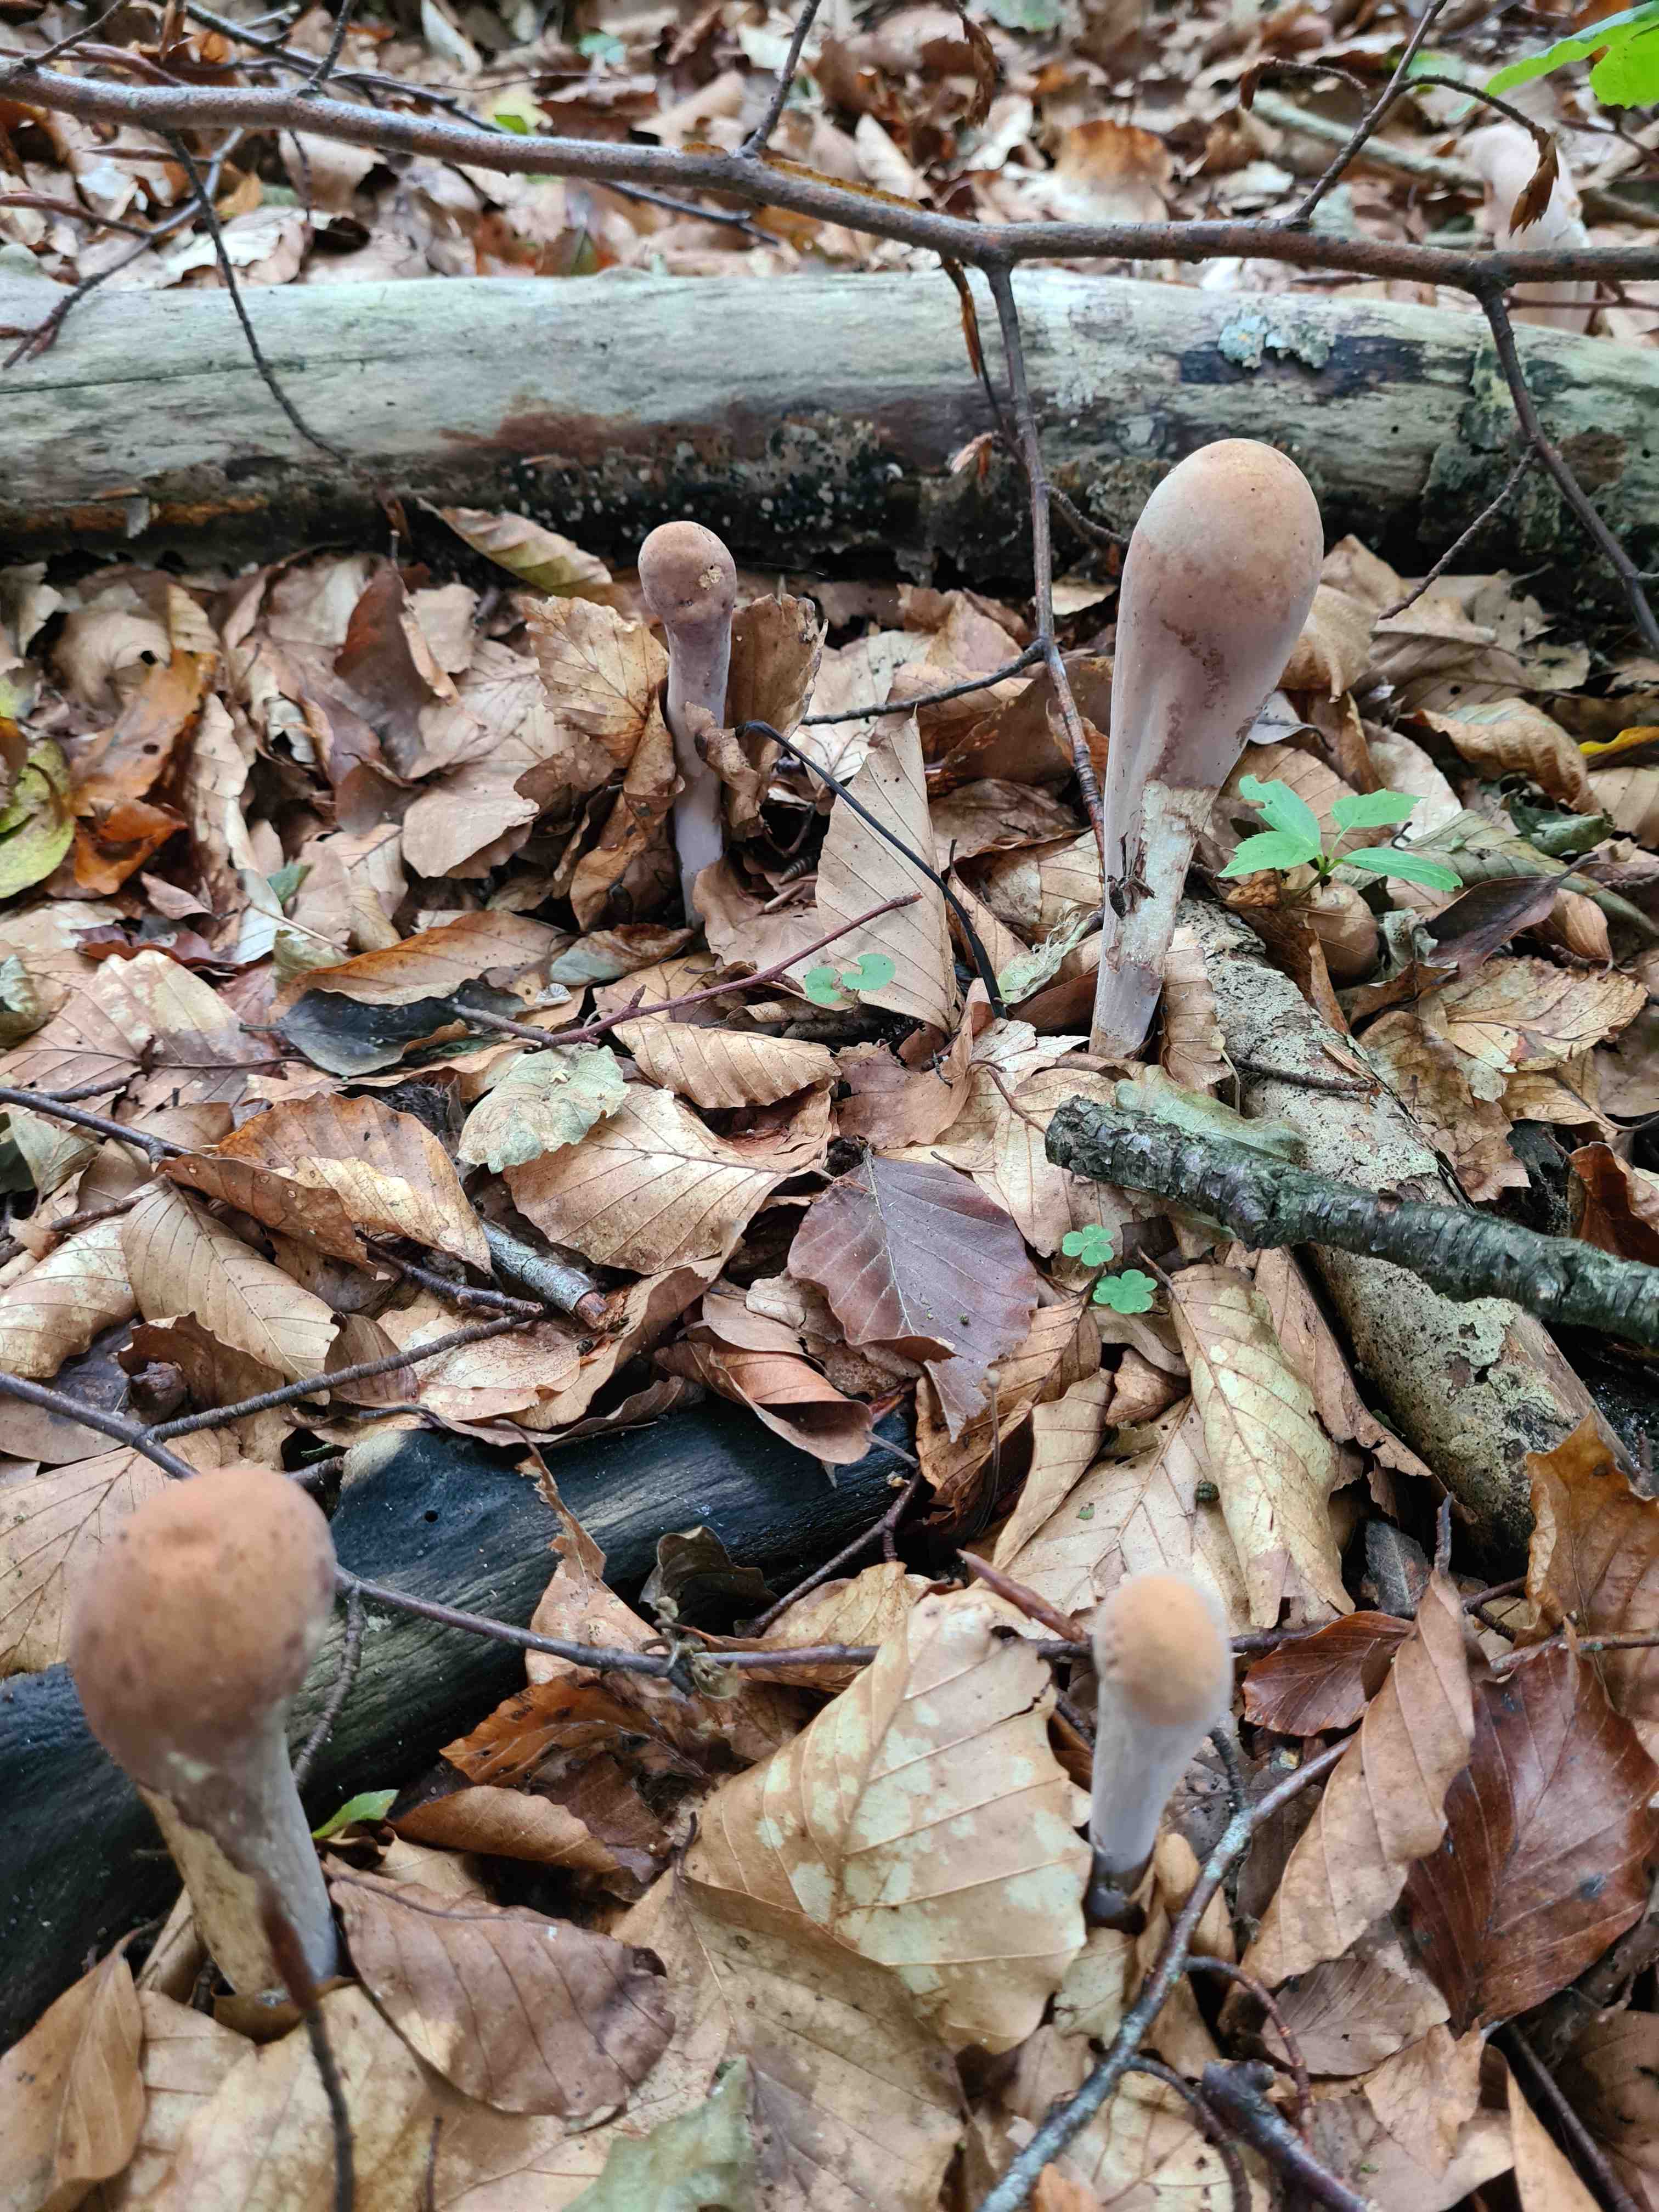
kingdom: Fungi
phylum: Basidiomycota
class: Agaricomycetes
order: Gomphales
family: Clavariadelphaceae
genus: Clavariadelphus
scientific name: Clavariadelphus pistillaris
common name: herkules-kæmpekølle
